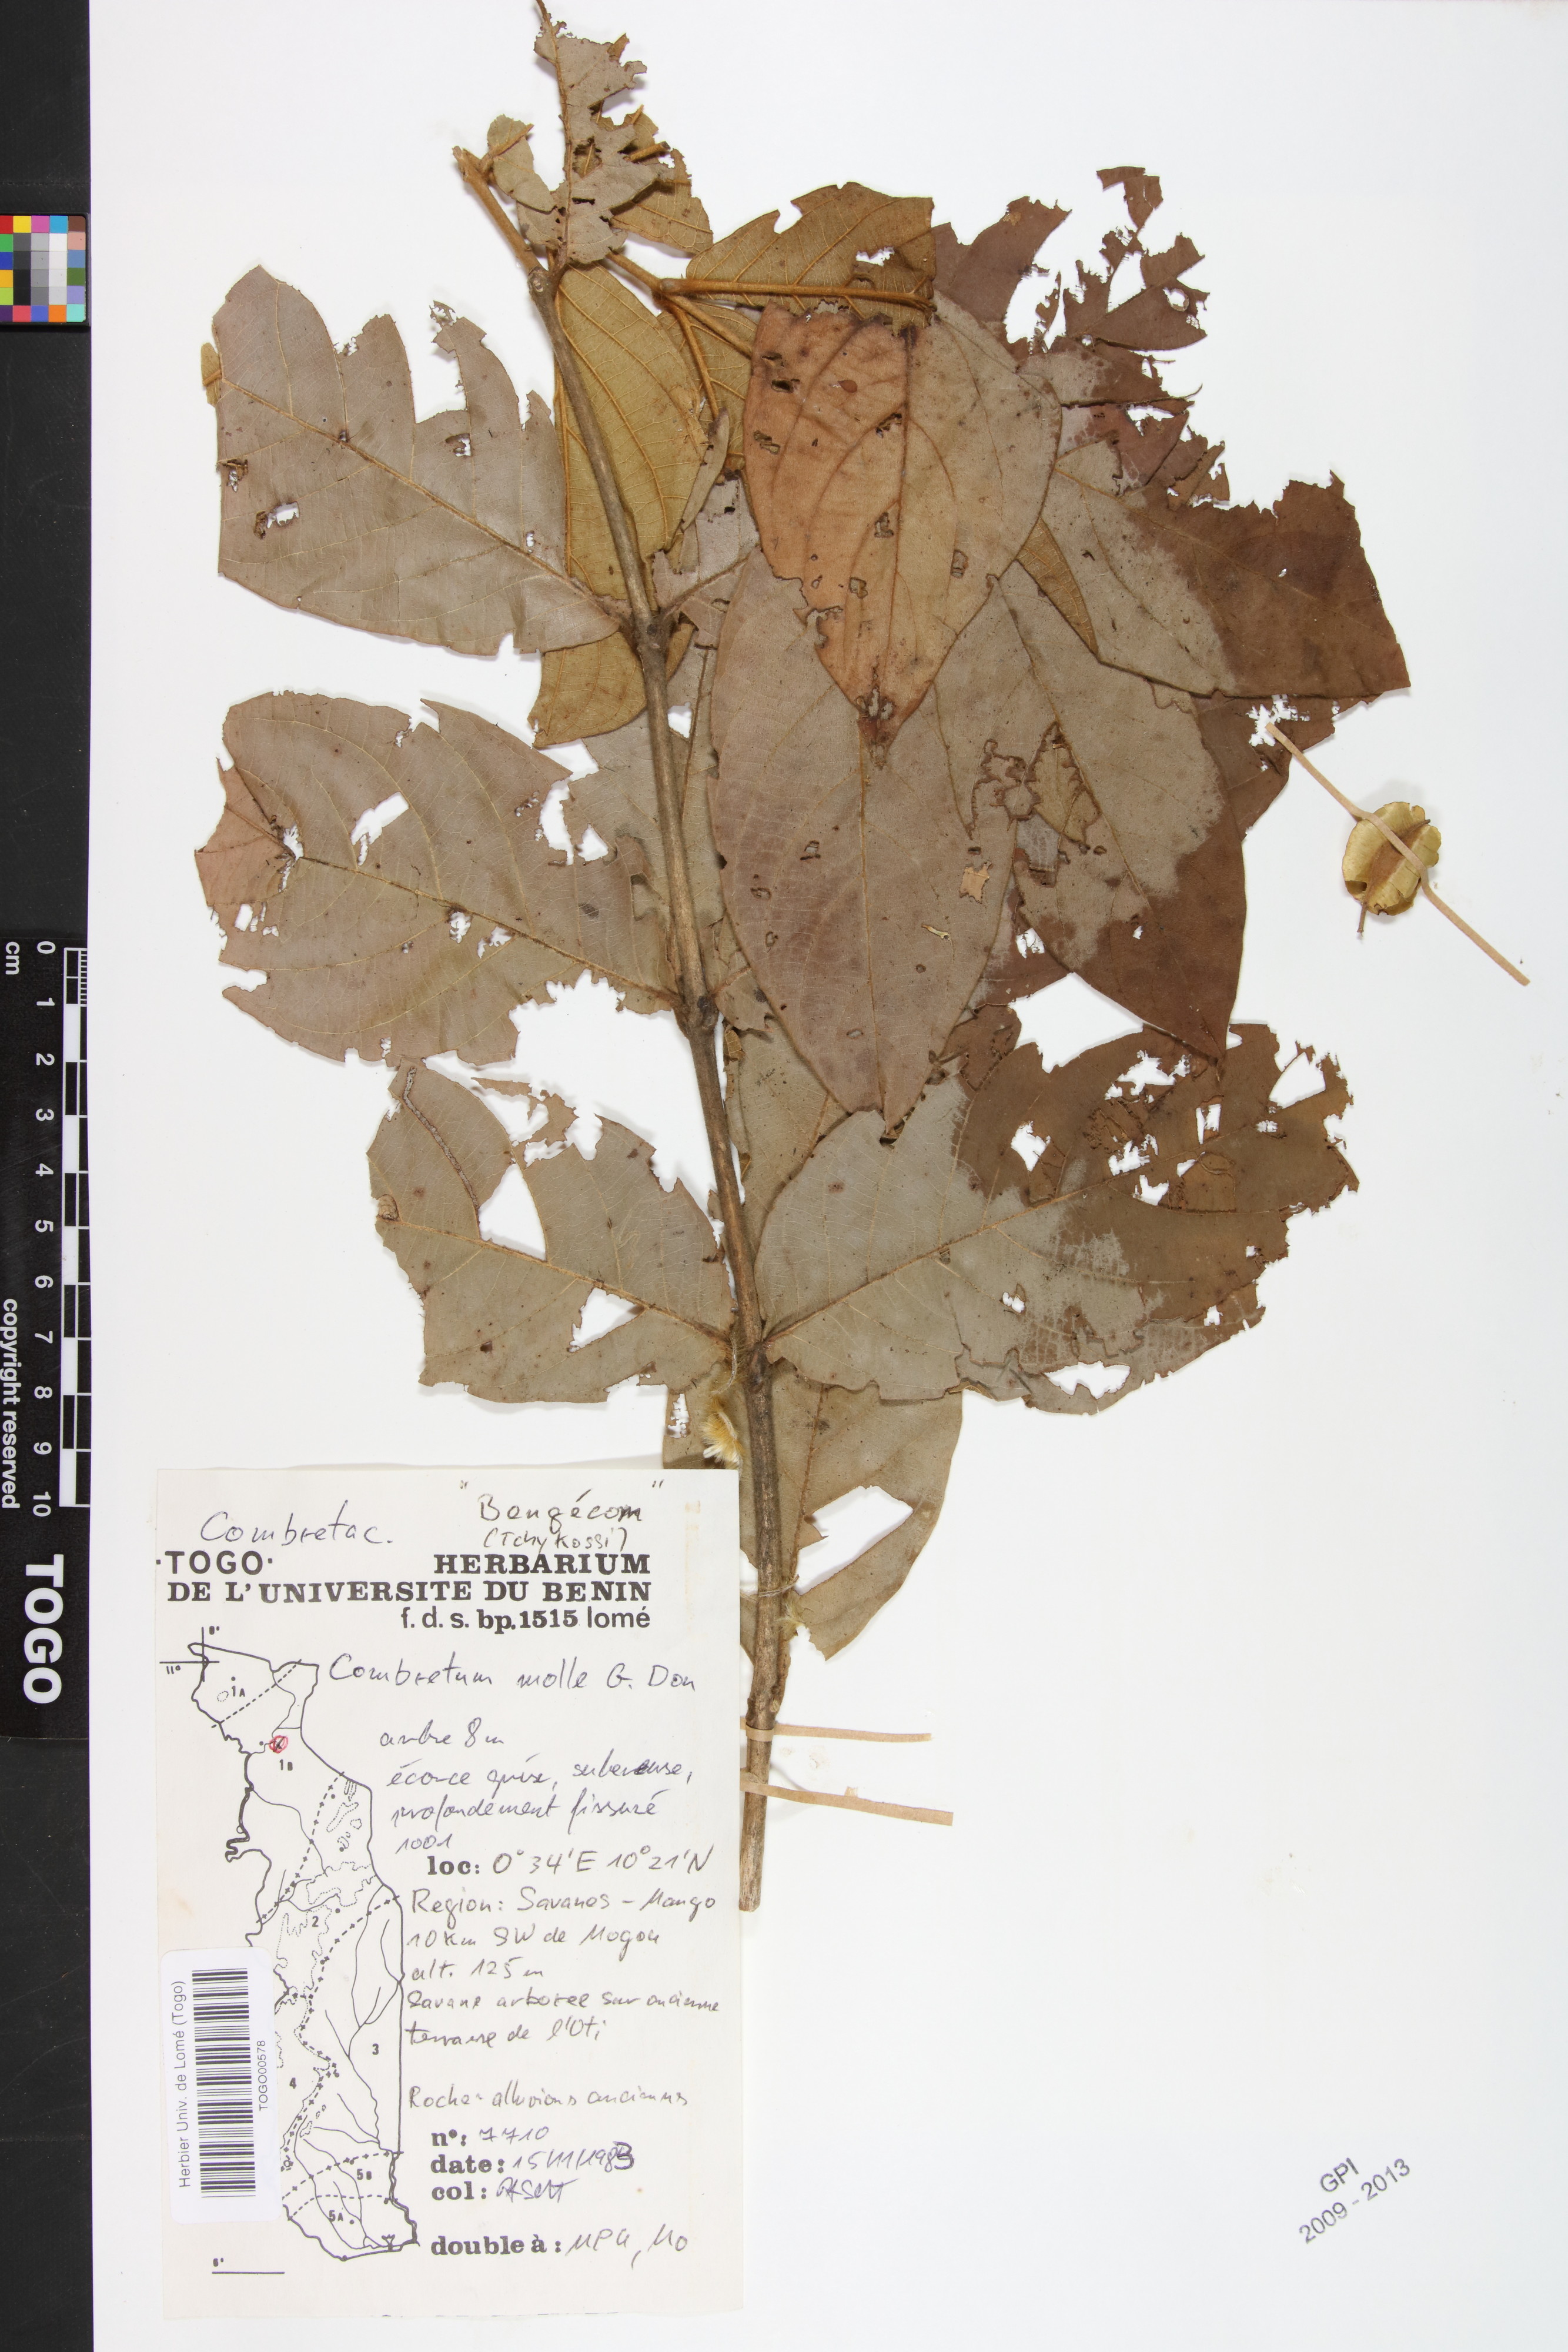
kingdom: Plantae
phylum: Tracheophyta
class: Magnoliopsida
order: Myrtales
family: Combretaceae
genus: Combretum
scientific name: Combretum molle
